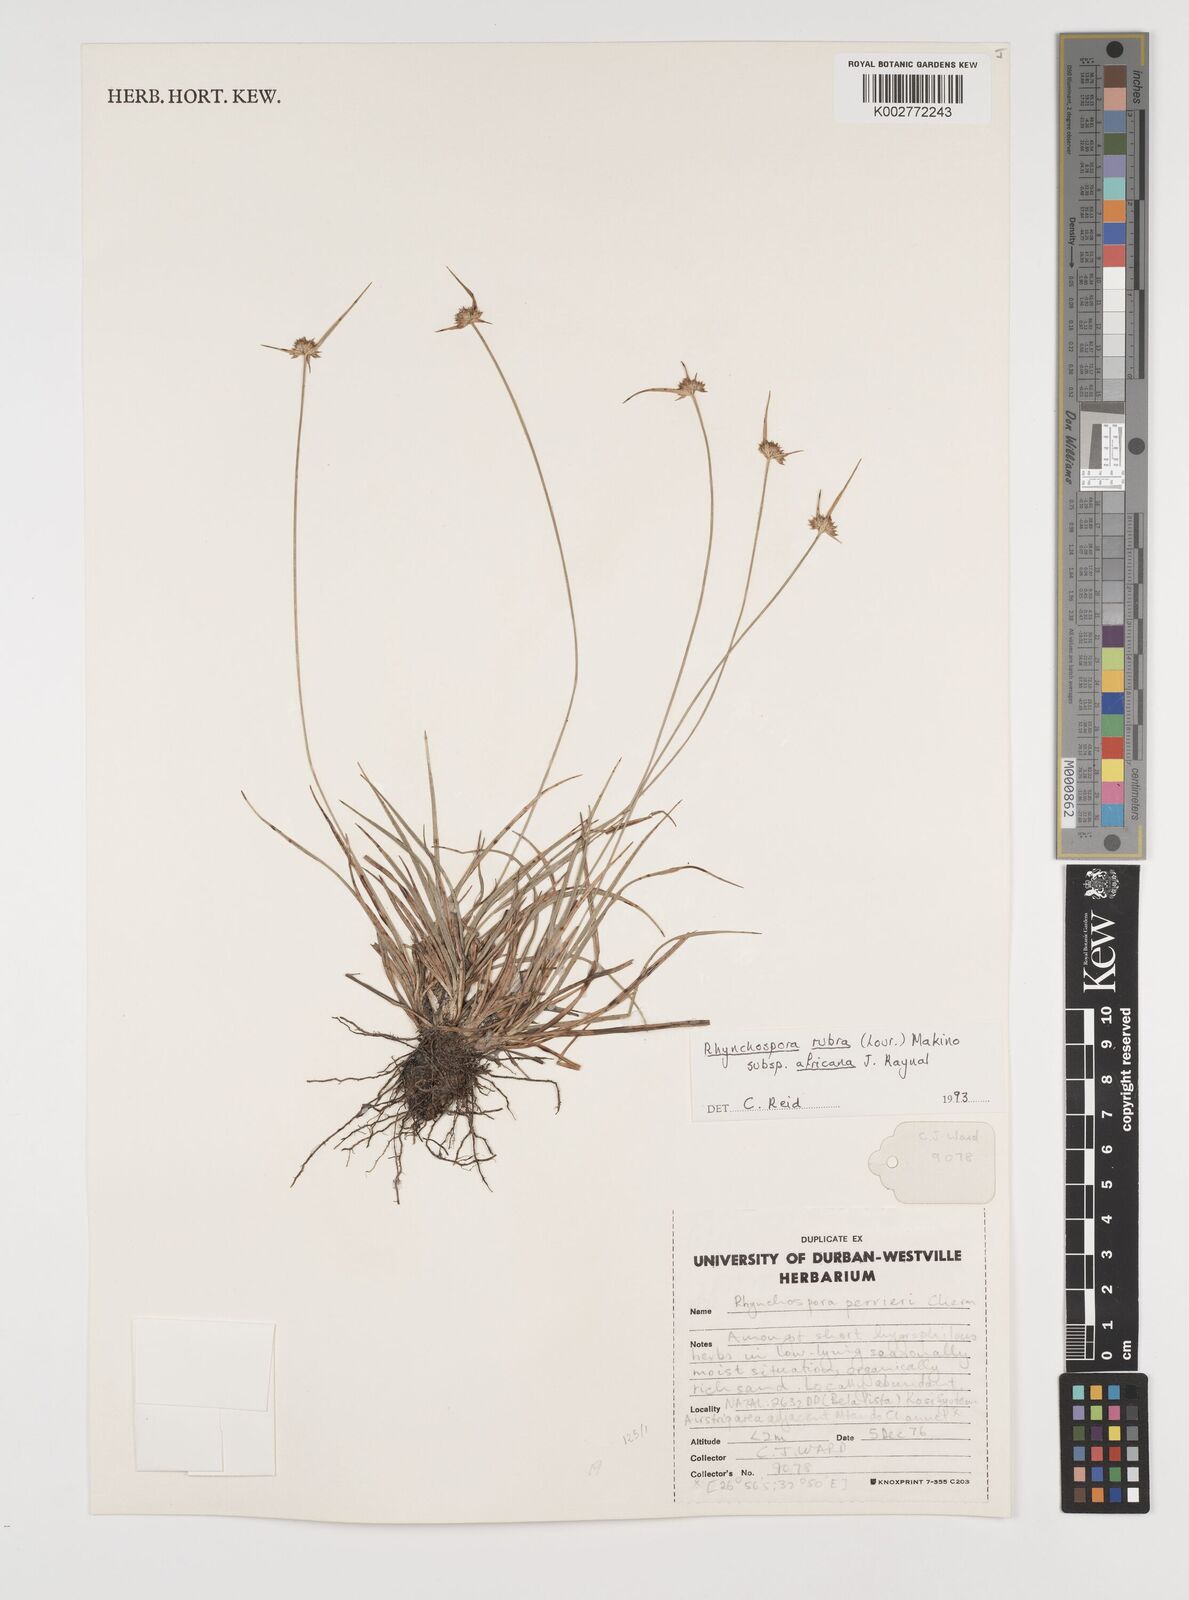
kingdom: Plantae
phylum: Tracheophyta
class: Liliopsida
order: Poales
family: Cyperaceae
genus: Rhynchospora
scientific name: Rhynchospora rubra
